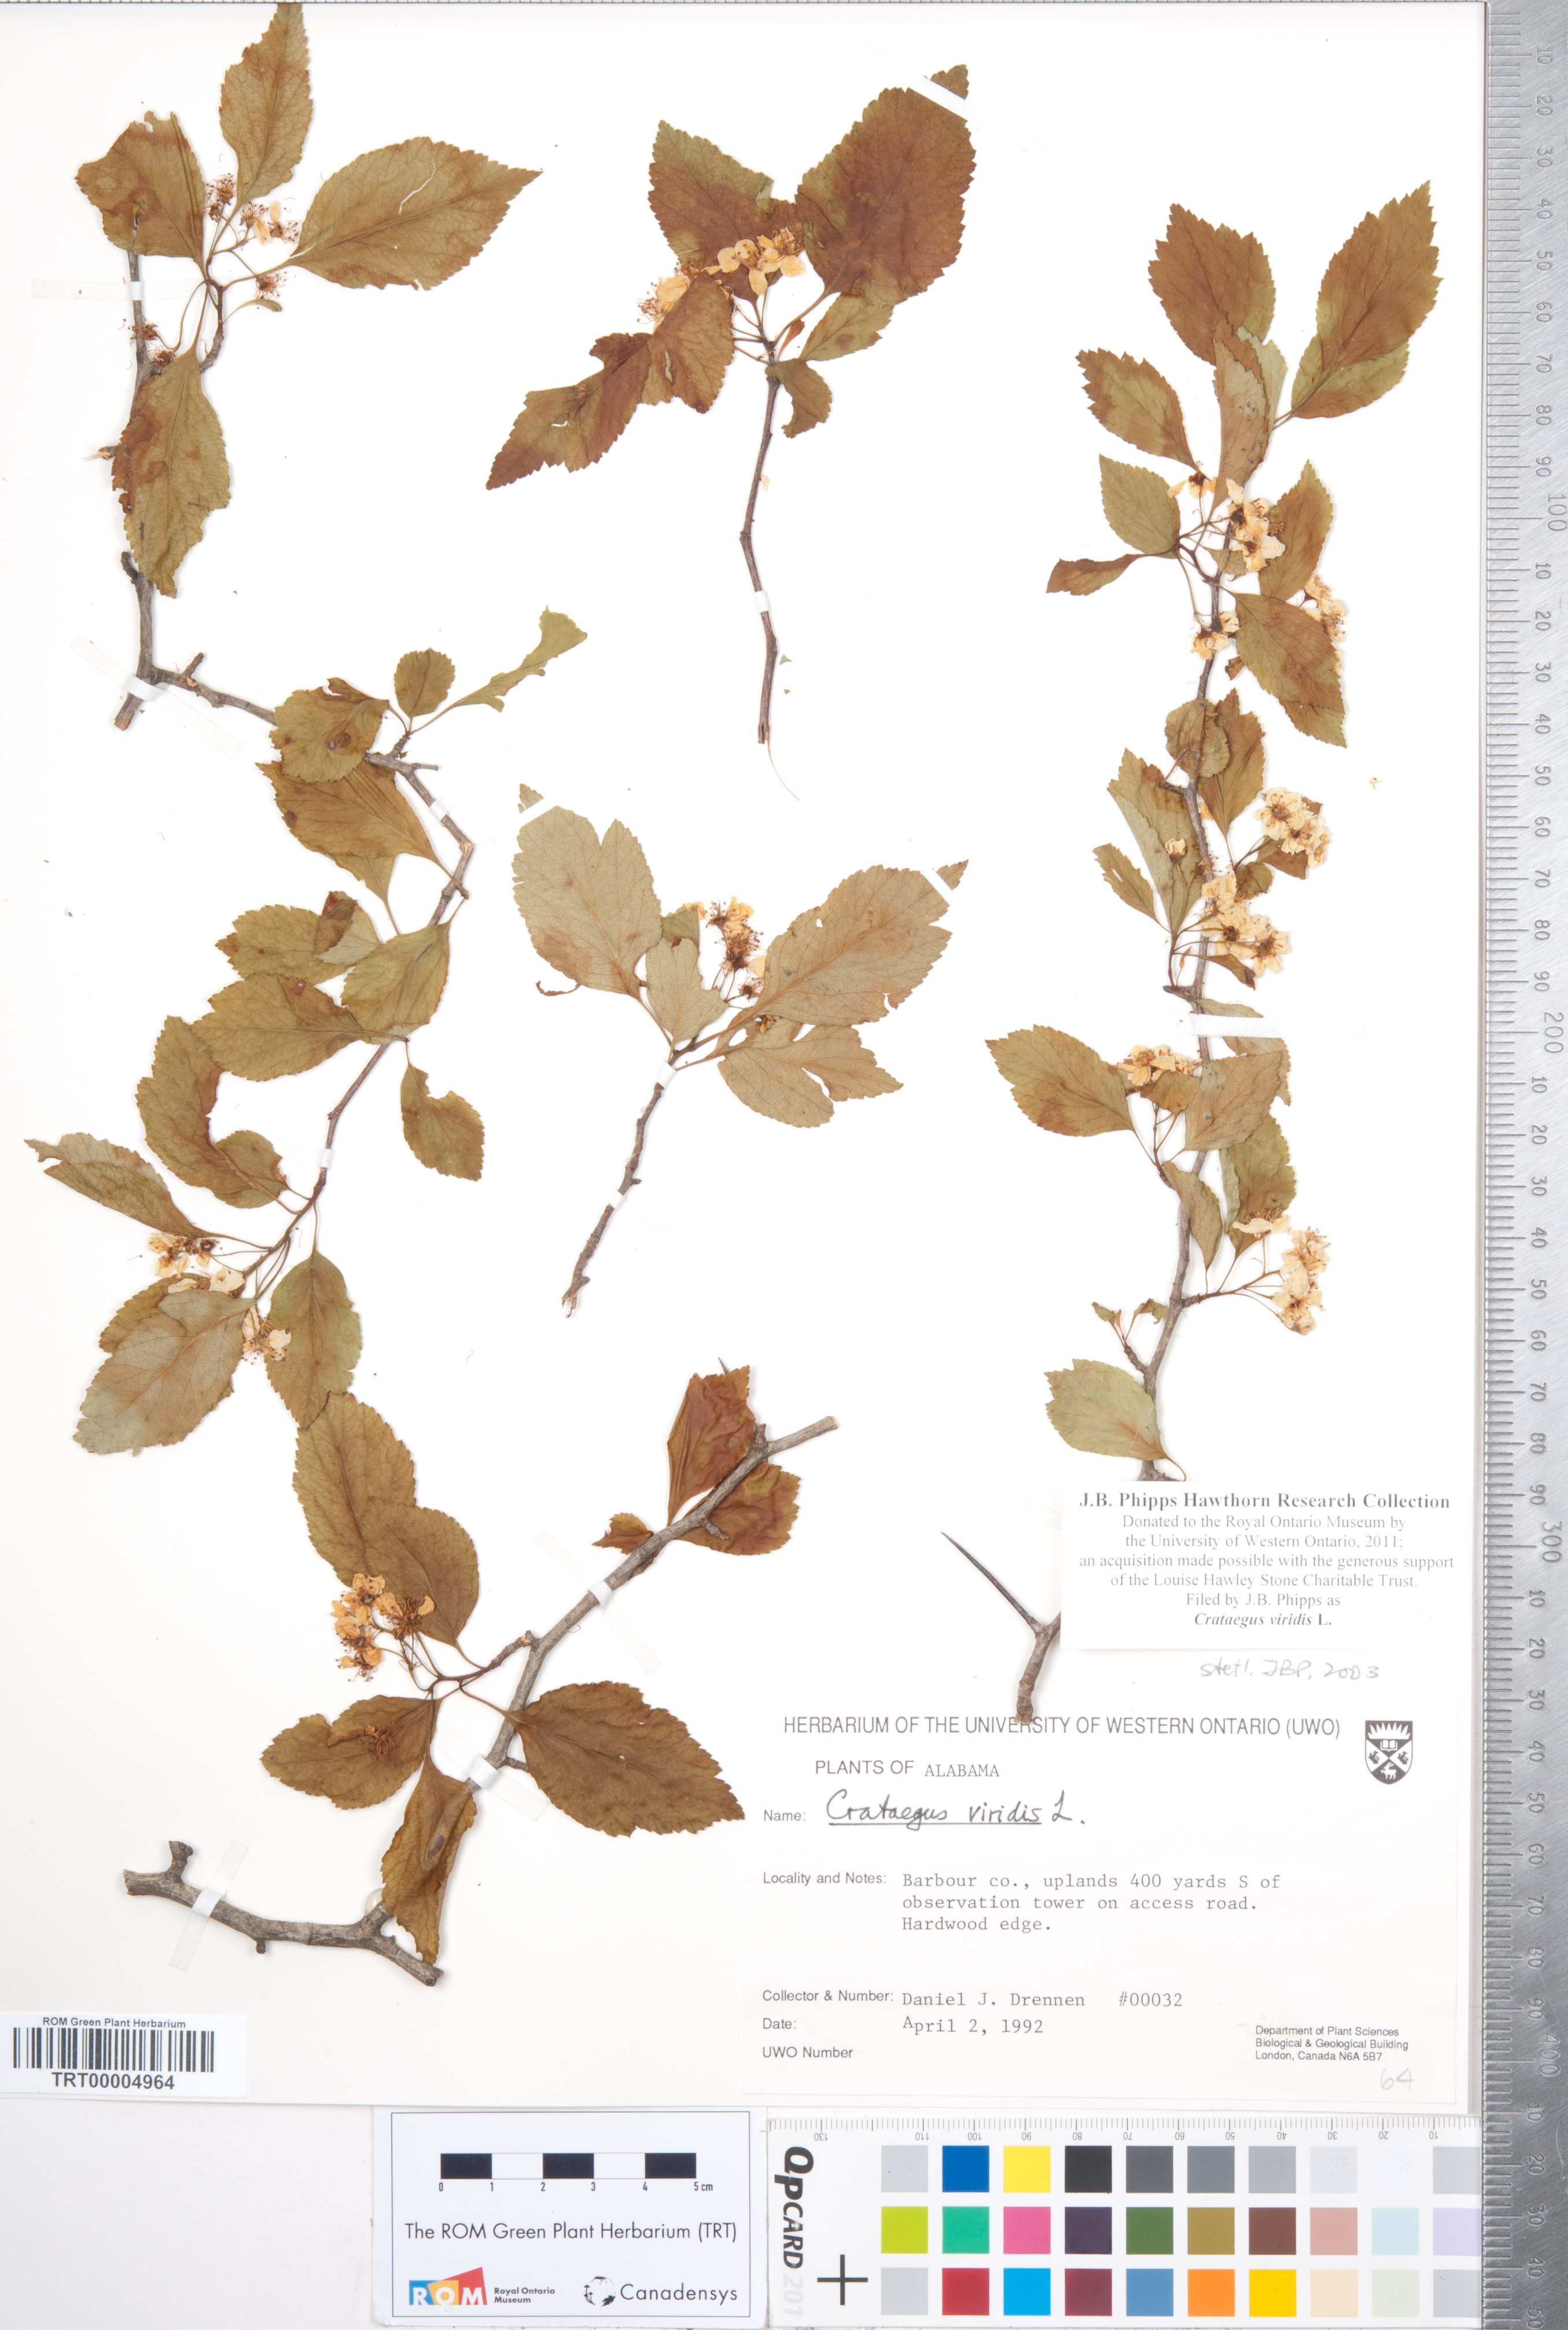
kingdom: Plantae
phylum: Tracheophyta
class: Magnoliopsida
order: Rosales
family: Rosaceae
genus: Crataegus
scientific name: Crataegus viridis
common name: Southernthorn
